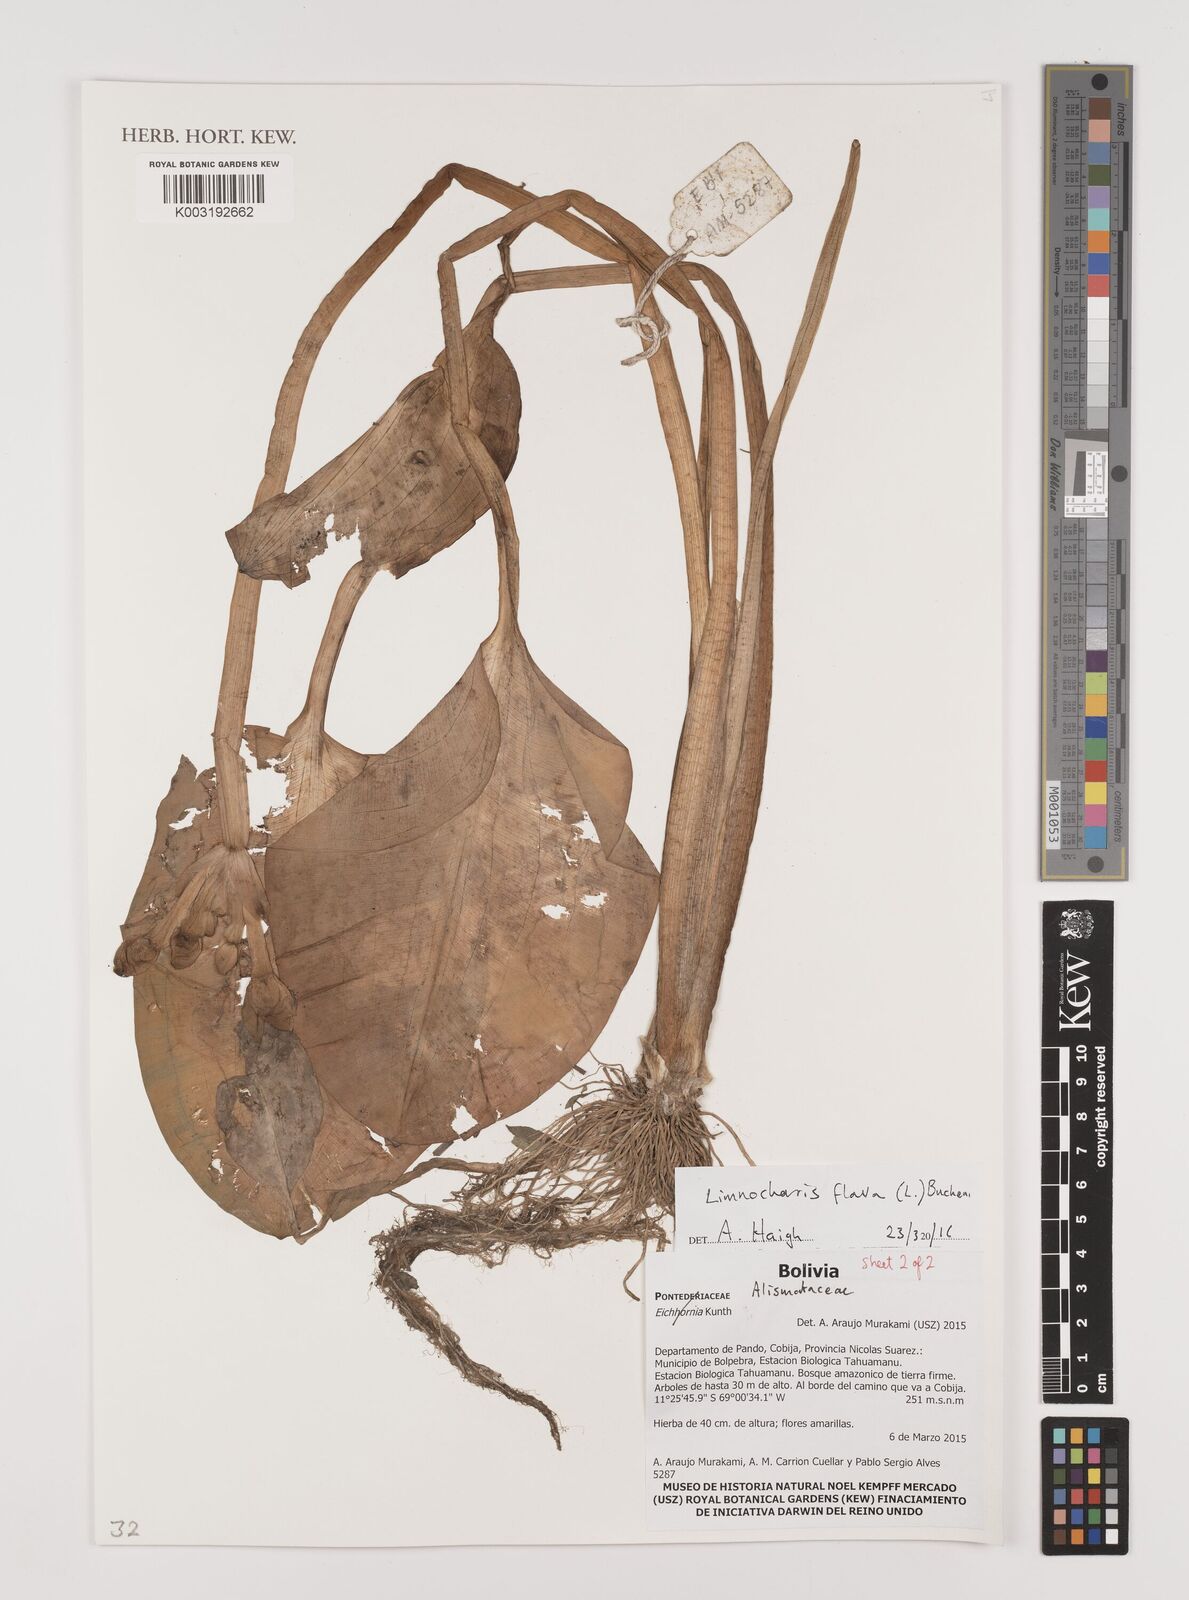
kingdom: Plantae
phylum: Tracheophyta
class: Liliopsida
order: Alismatales
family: Alismataceae
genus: Limnocharis
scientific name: Limnocharis flava
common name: Sawah-flower-rush
